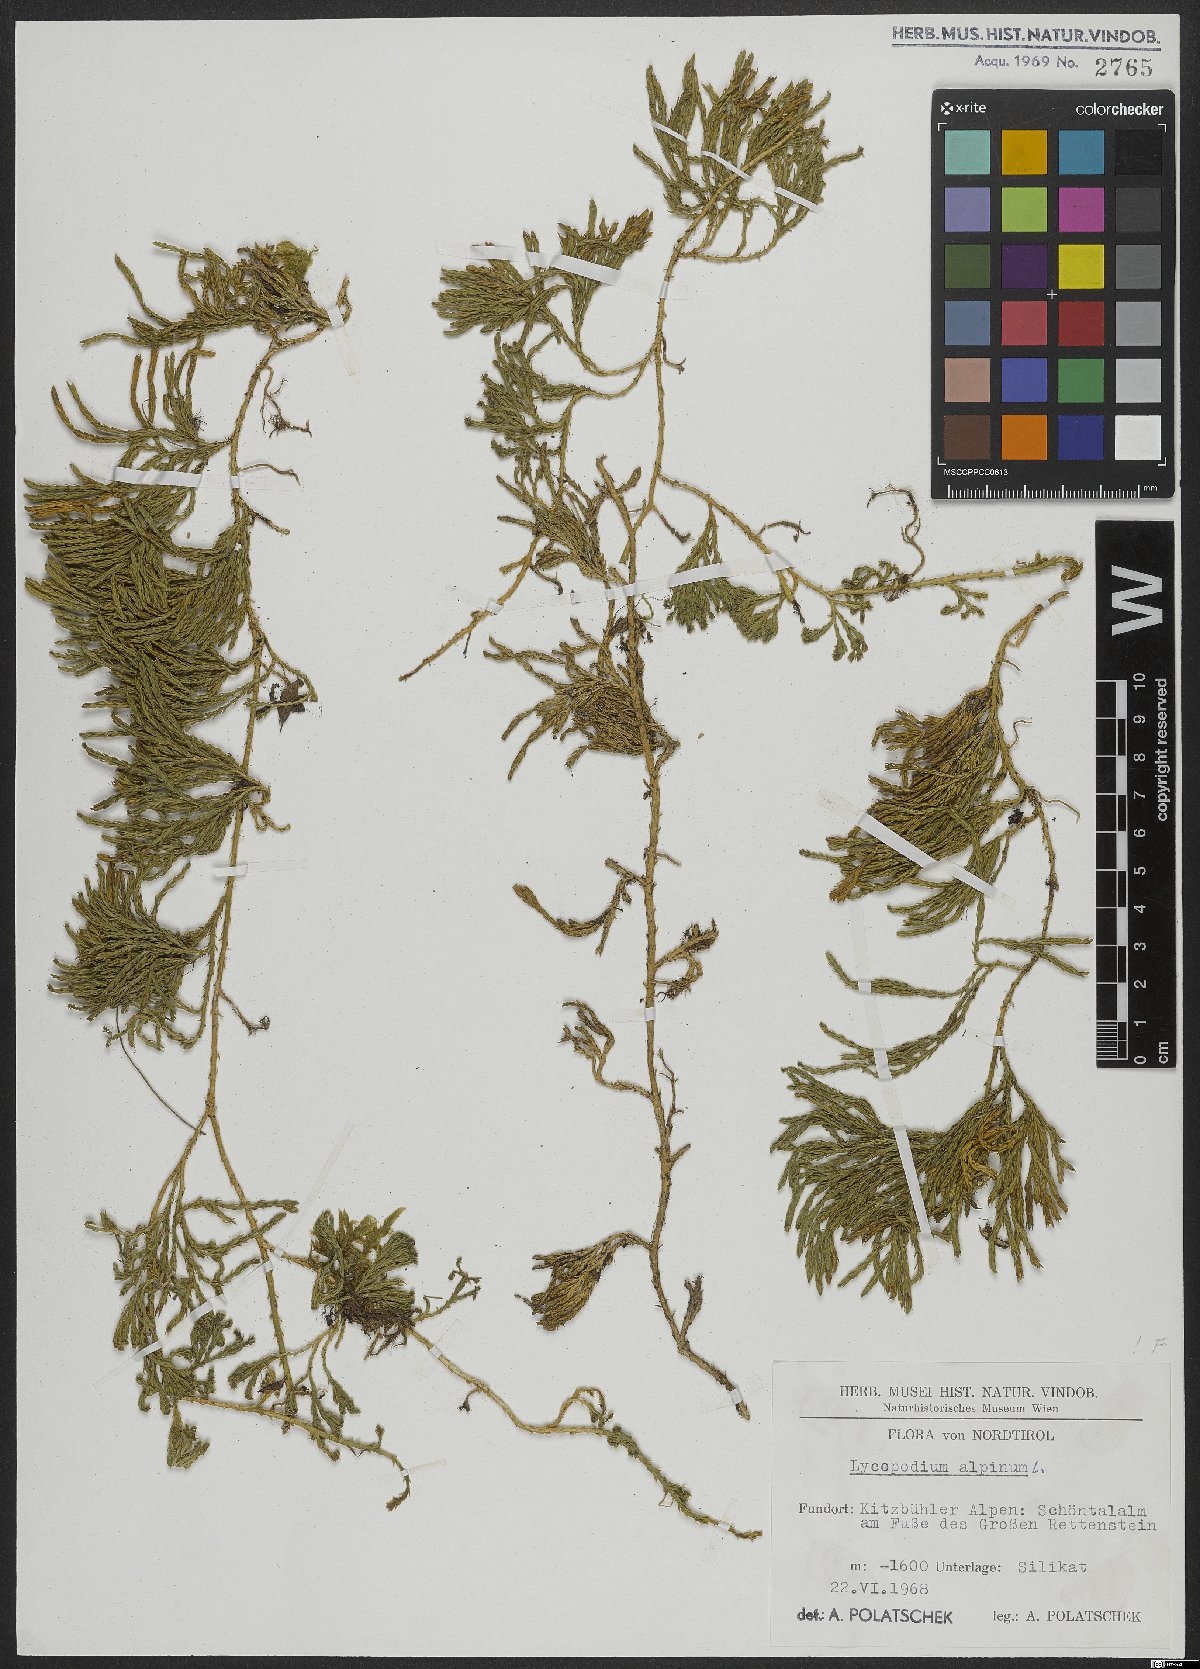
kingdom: Plantae
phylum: Tracheophyta
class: Lycopodiopsida
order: Lycopodiales
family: Lycopodiaceae
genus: Diphasiastrum
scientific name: Diphasiastrum alpinum
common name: Alpine clubmoss
